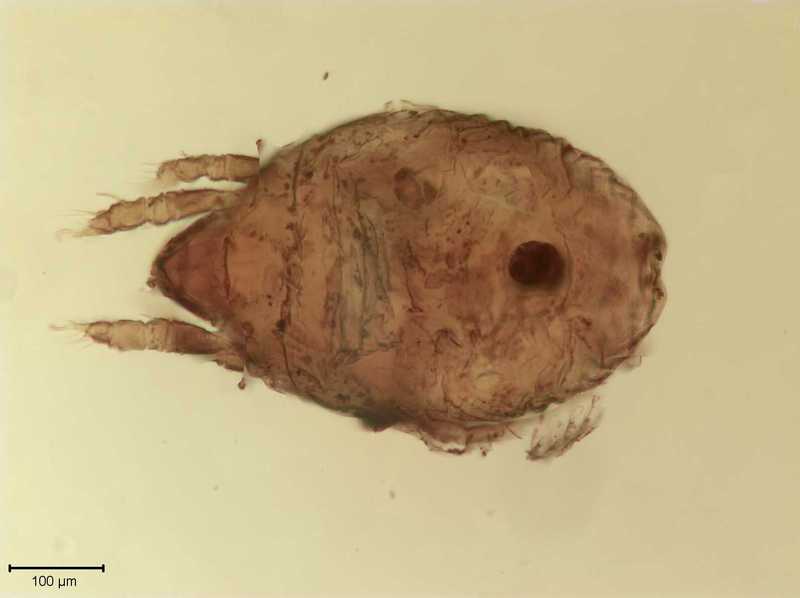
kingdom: Animalia
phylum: Arthropoda
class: Arachnida
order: Sarcoptiformes
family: Scutoverticidae
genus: Scutovertex
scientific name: Scutovertex minutus
